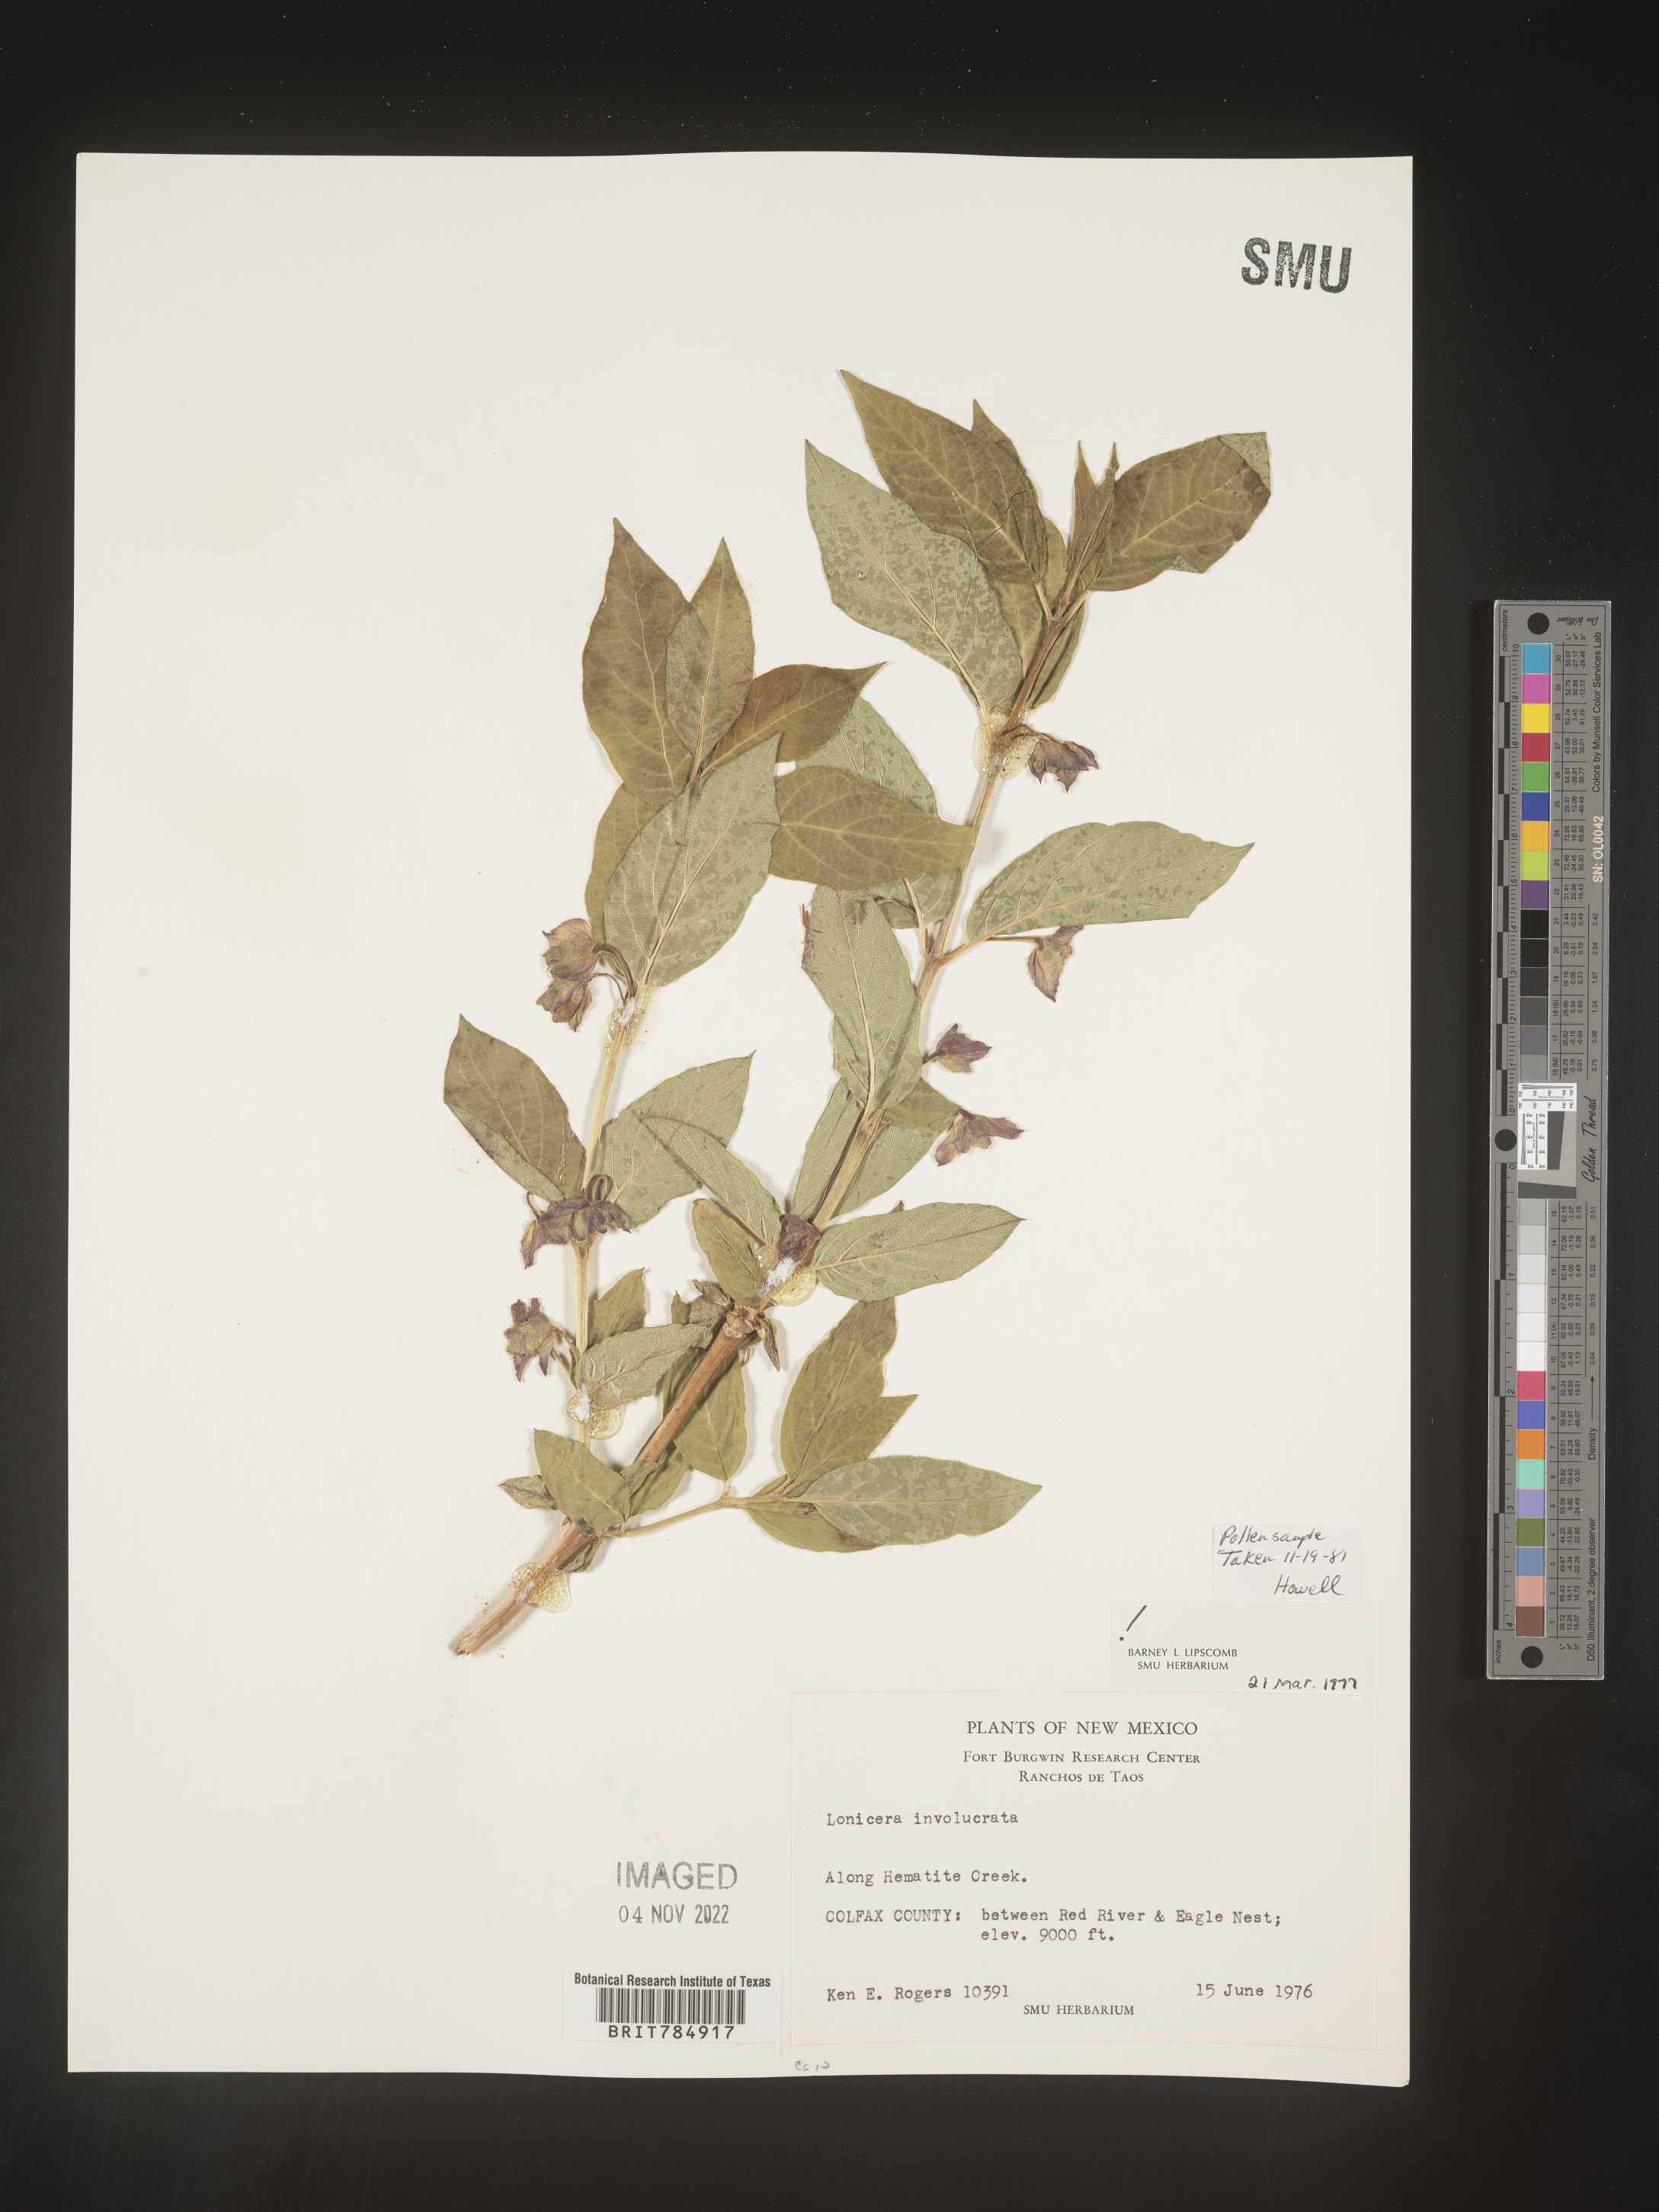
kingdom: Plantae
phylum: Tracheophyta
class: Magnoliopsida
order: Dipsacales
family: Caprifoliaceae
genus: Lonicera
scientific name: Lonicera involucrata
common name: Californian honeysuckle
